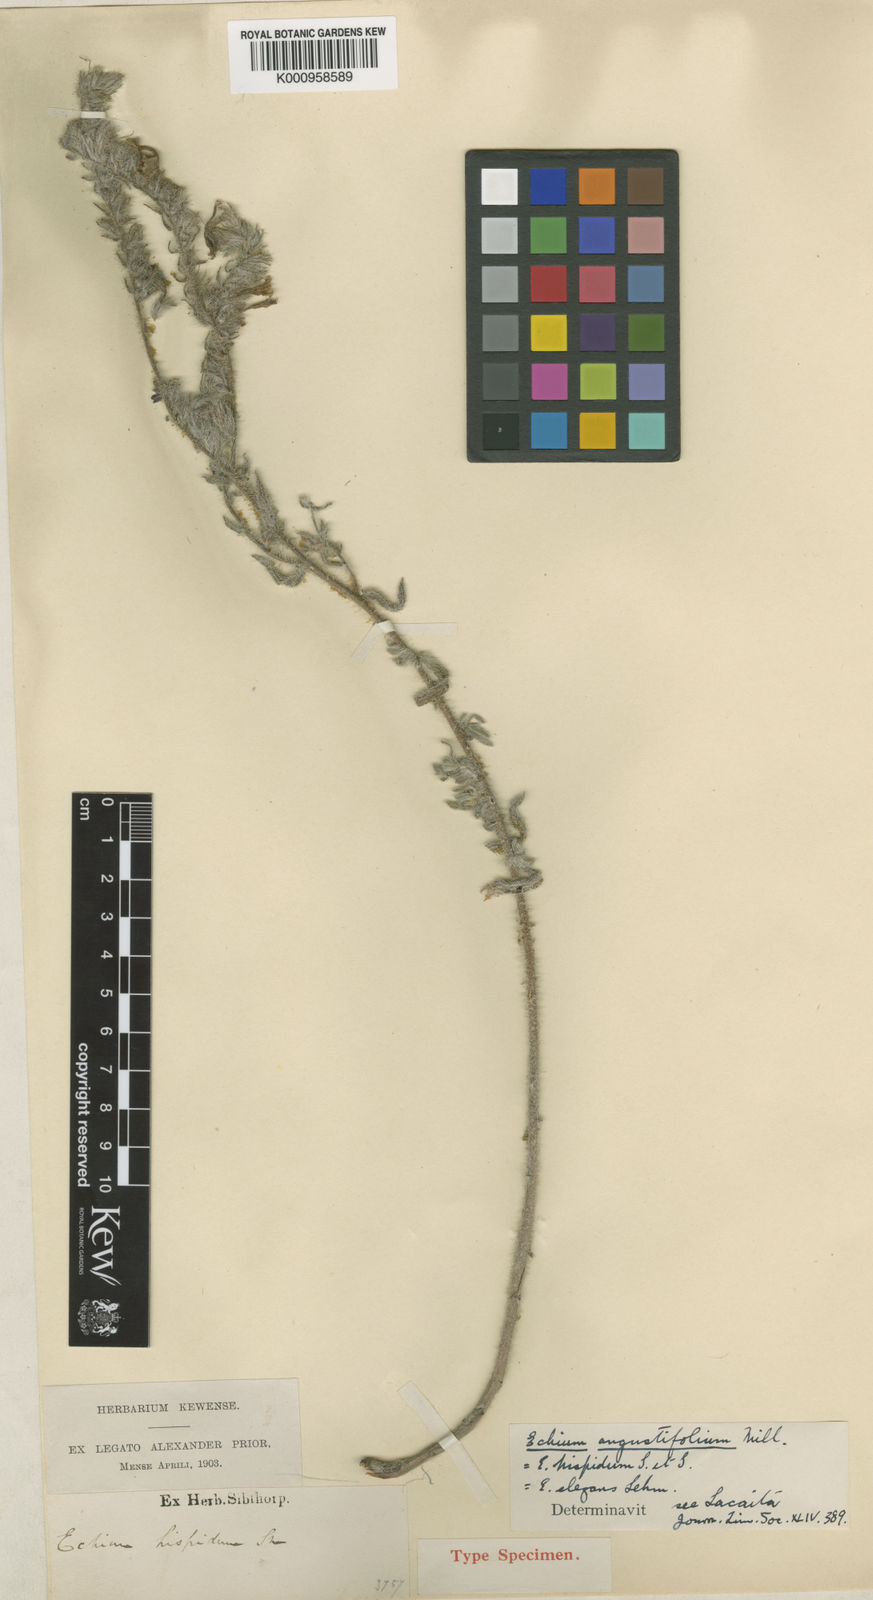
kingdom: Plantae
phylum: Tracheophyta
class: Magnoliopsida
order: Boraginales
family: Boraginaceae
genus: Echium
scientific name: Echium angustifolium
